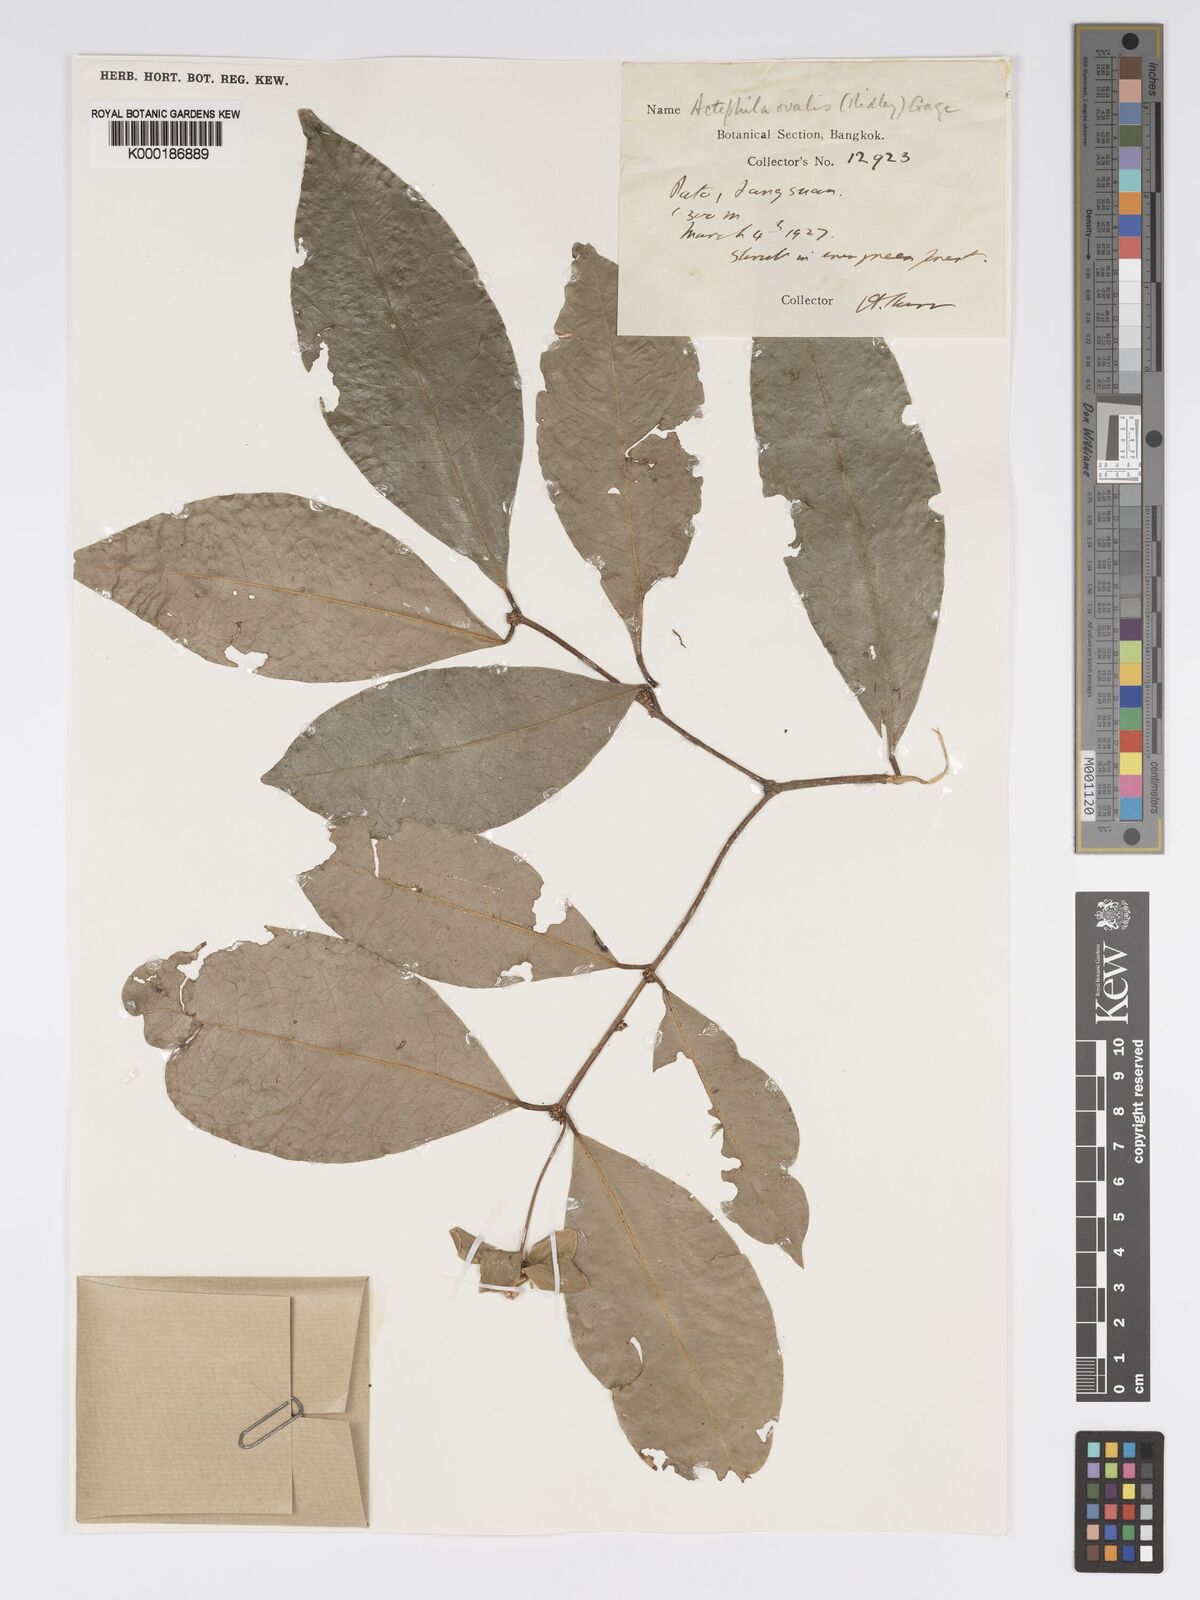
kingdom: Plantae
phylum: Tracheophyta
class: Magnoliopsida
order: Malpighiales
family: Phyllanthaceae
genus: Actephila
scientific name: Actephila ovalis
